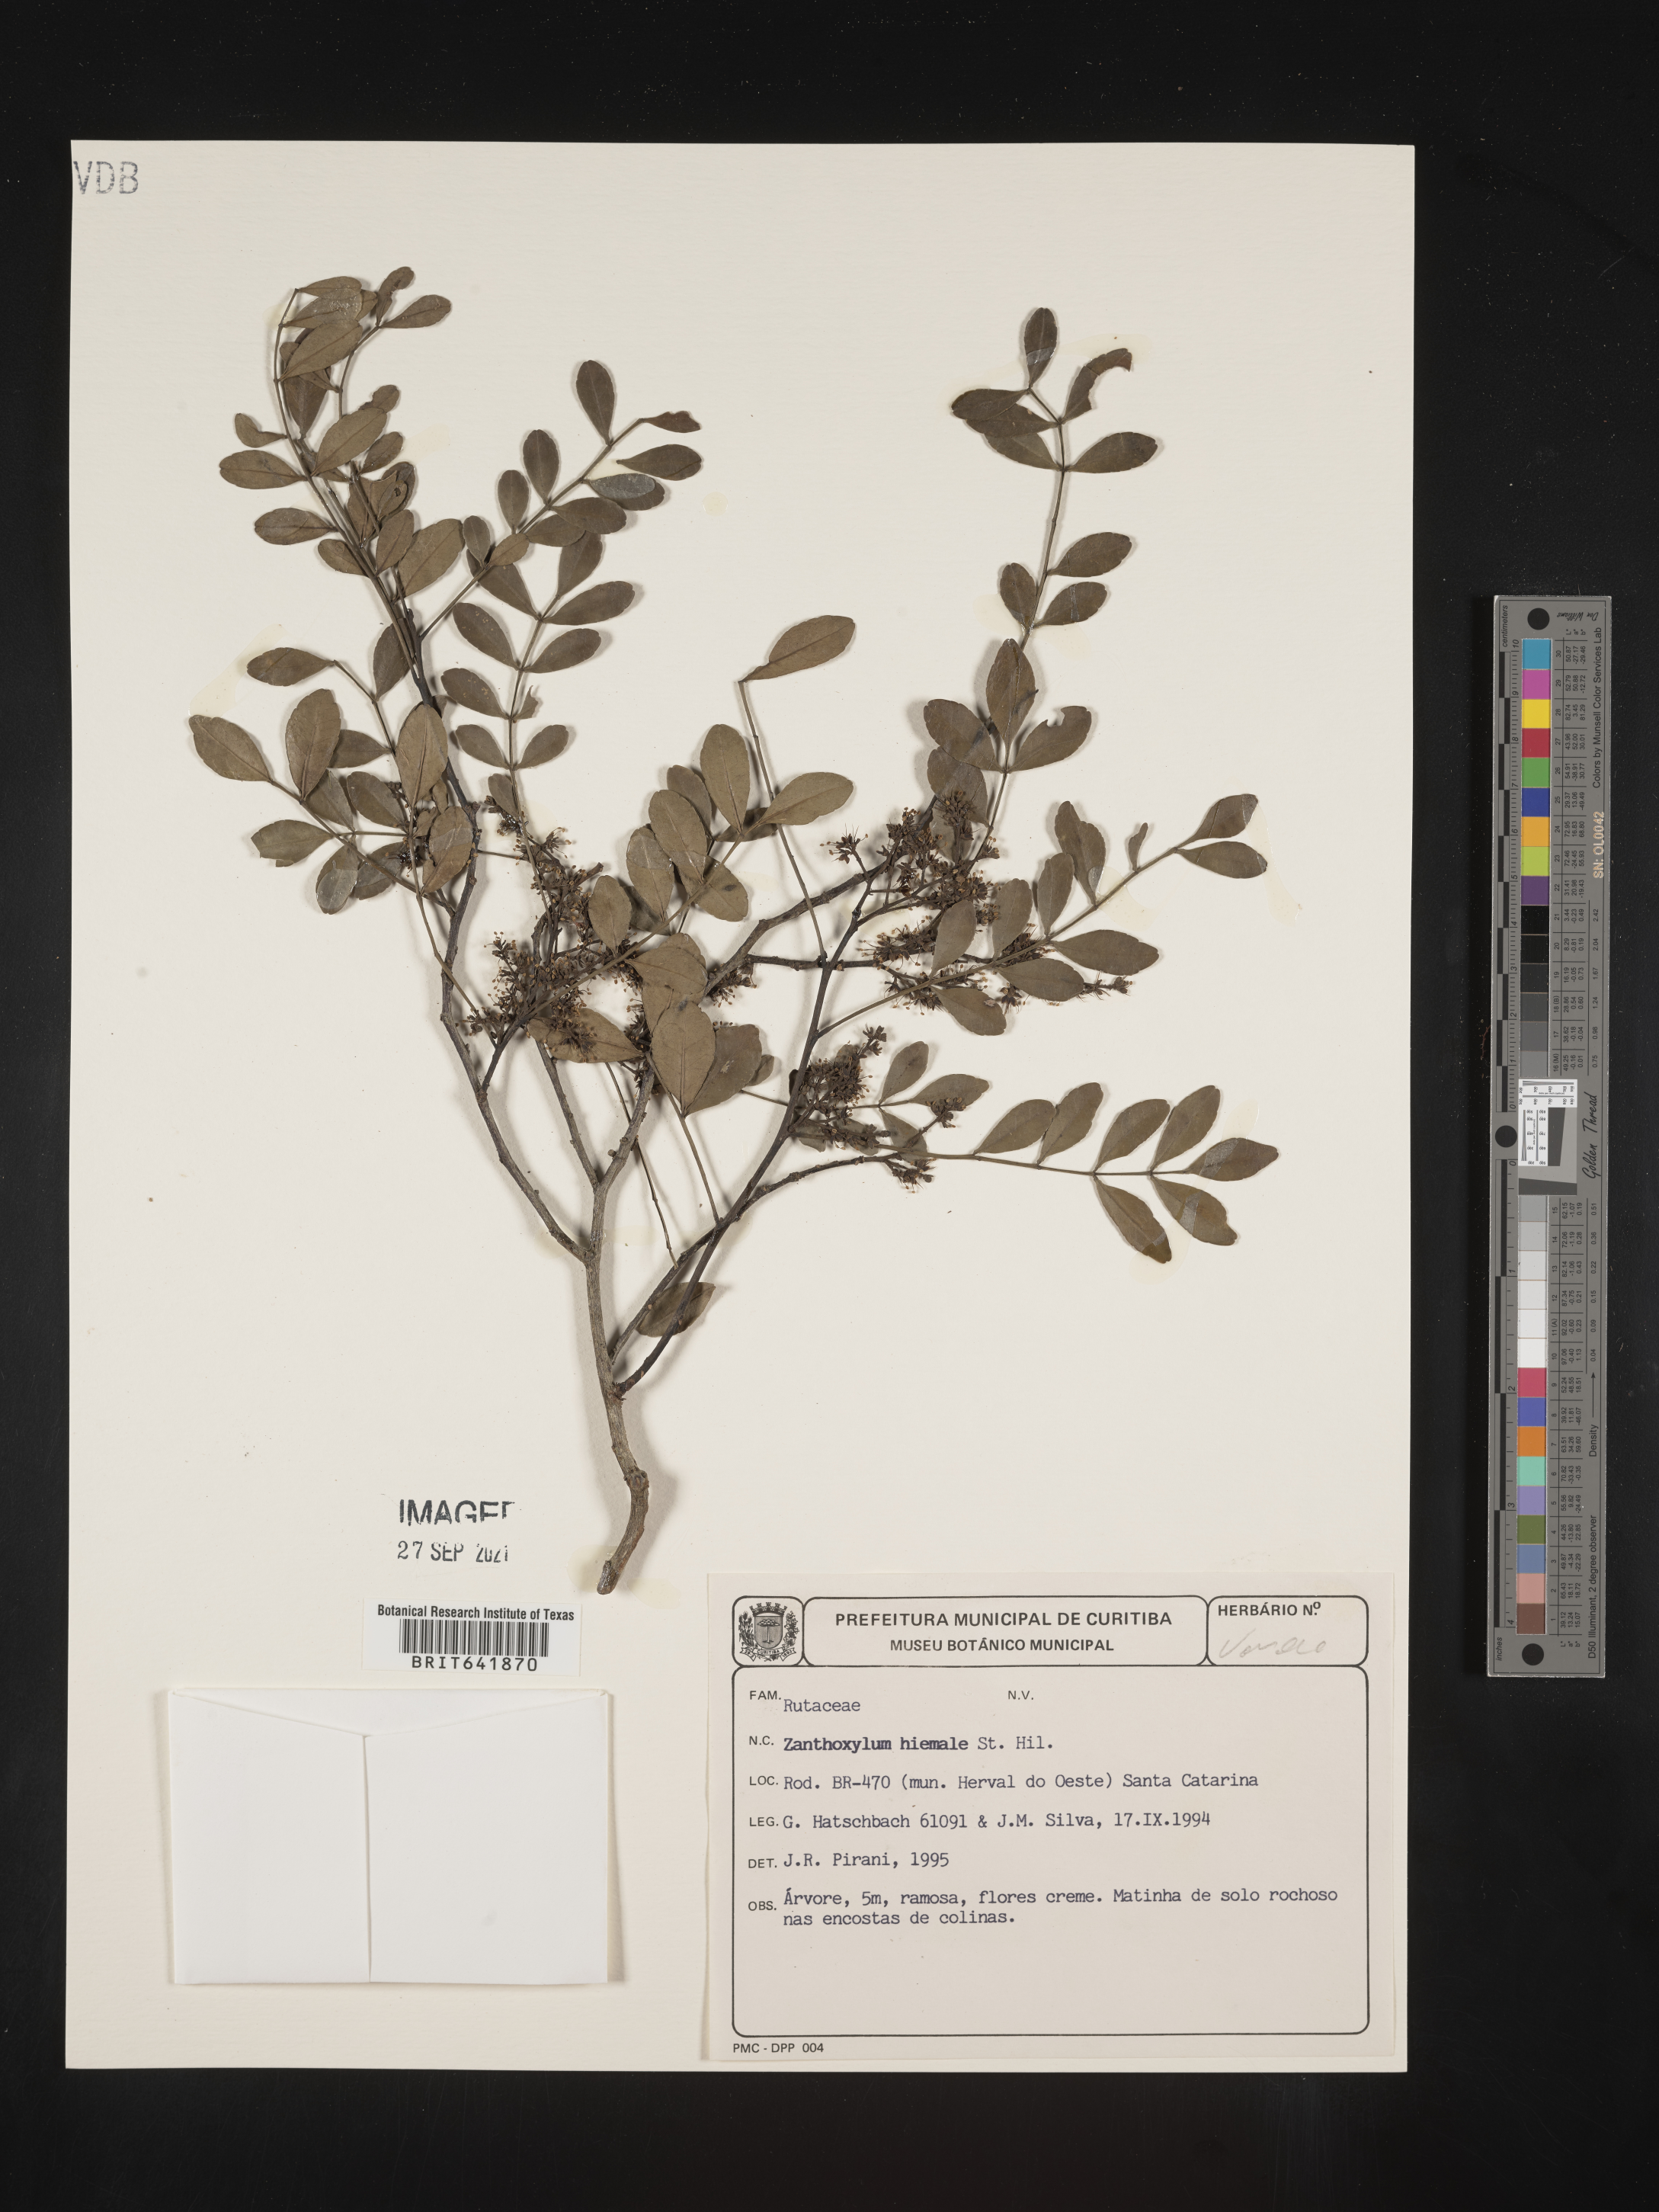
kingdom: Plantae
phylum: Tracheophyta
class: Magnoliopsida
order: Sapindales
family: Rutaceae
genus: Zanthoxylum
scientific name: Zanthoxylum
